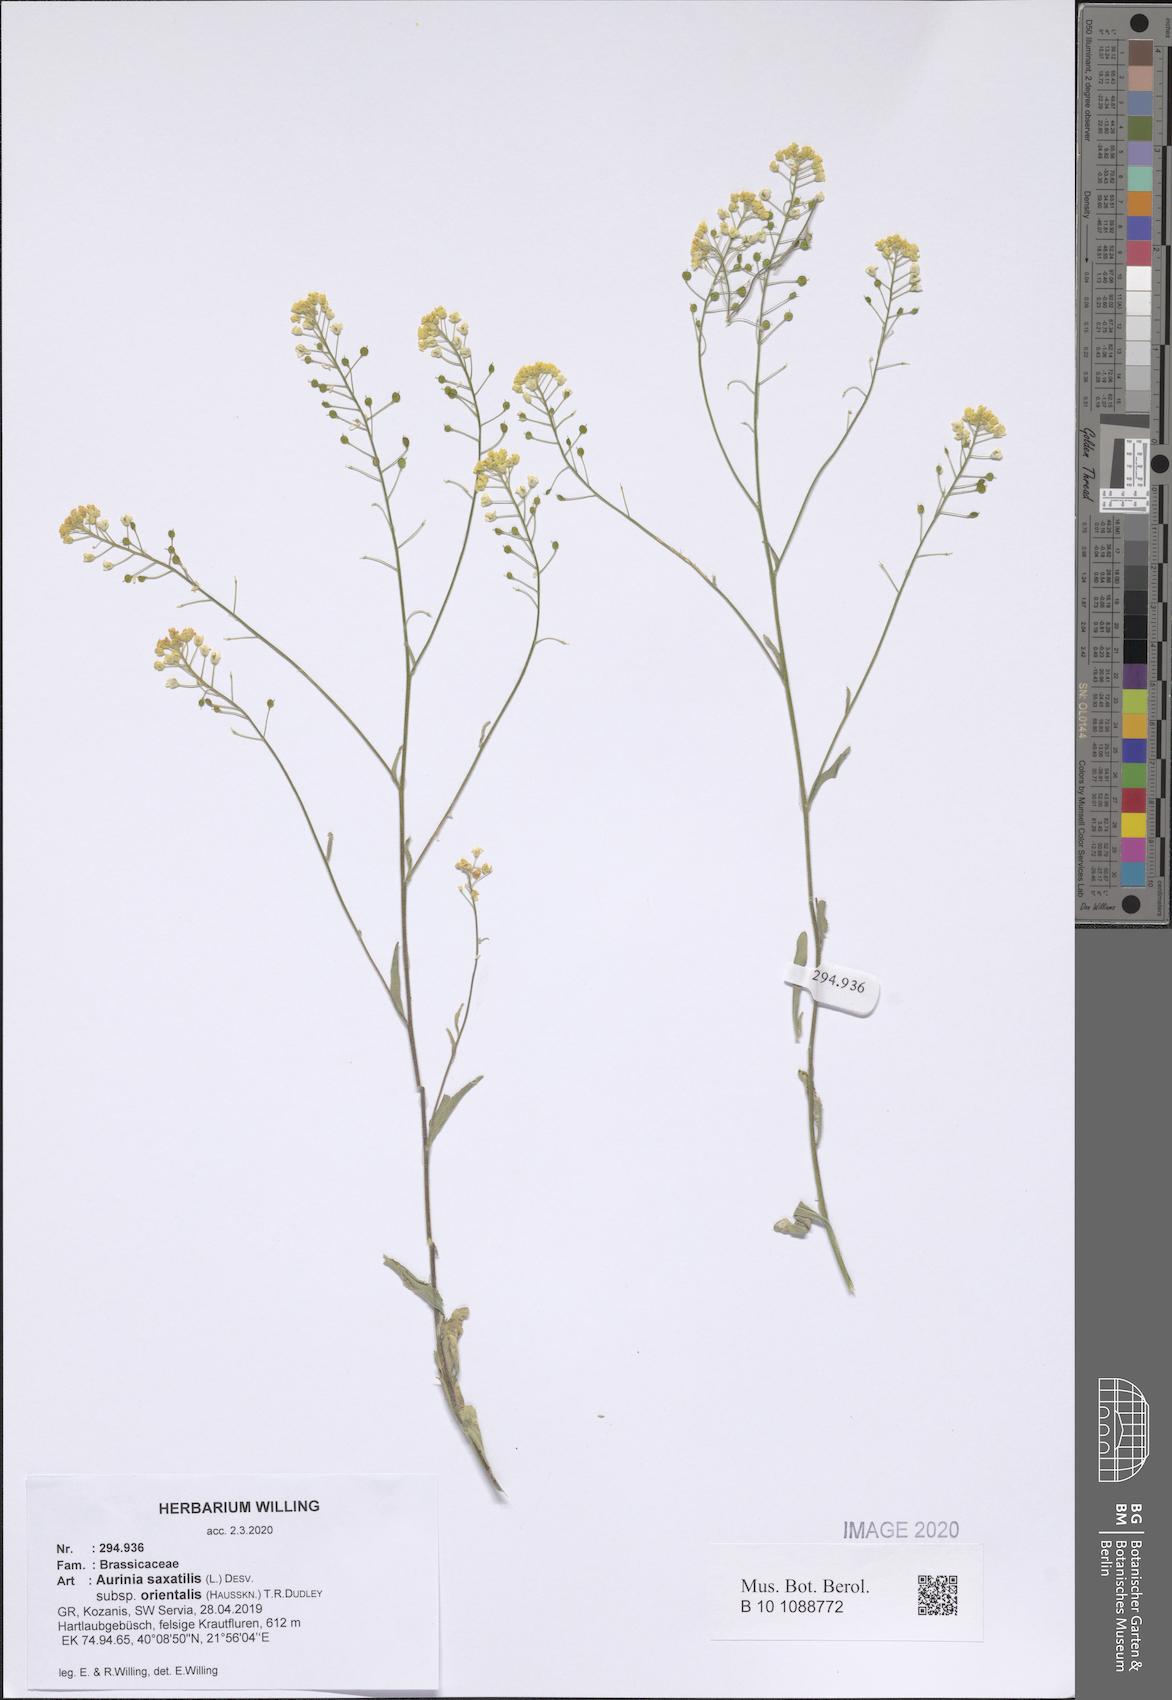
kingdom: Plantae
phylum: Tracheophyta
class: Magnoliopsida
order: Brassicales
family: Brassicaceae
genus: Aurinia
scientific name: Aurinia saxatilis
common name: Golden-tuft alyssum
